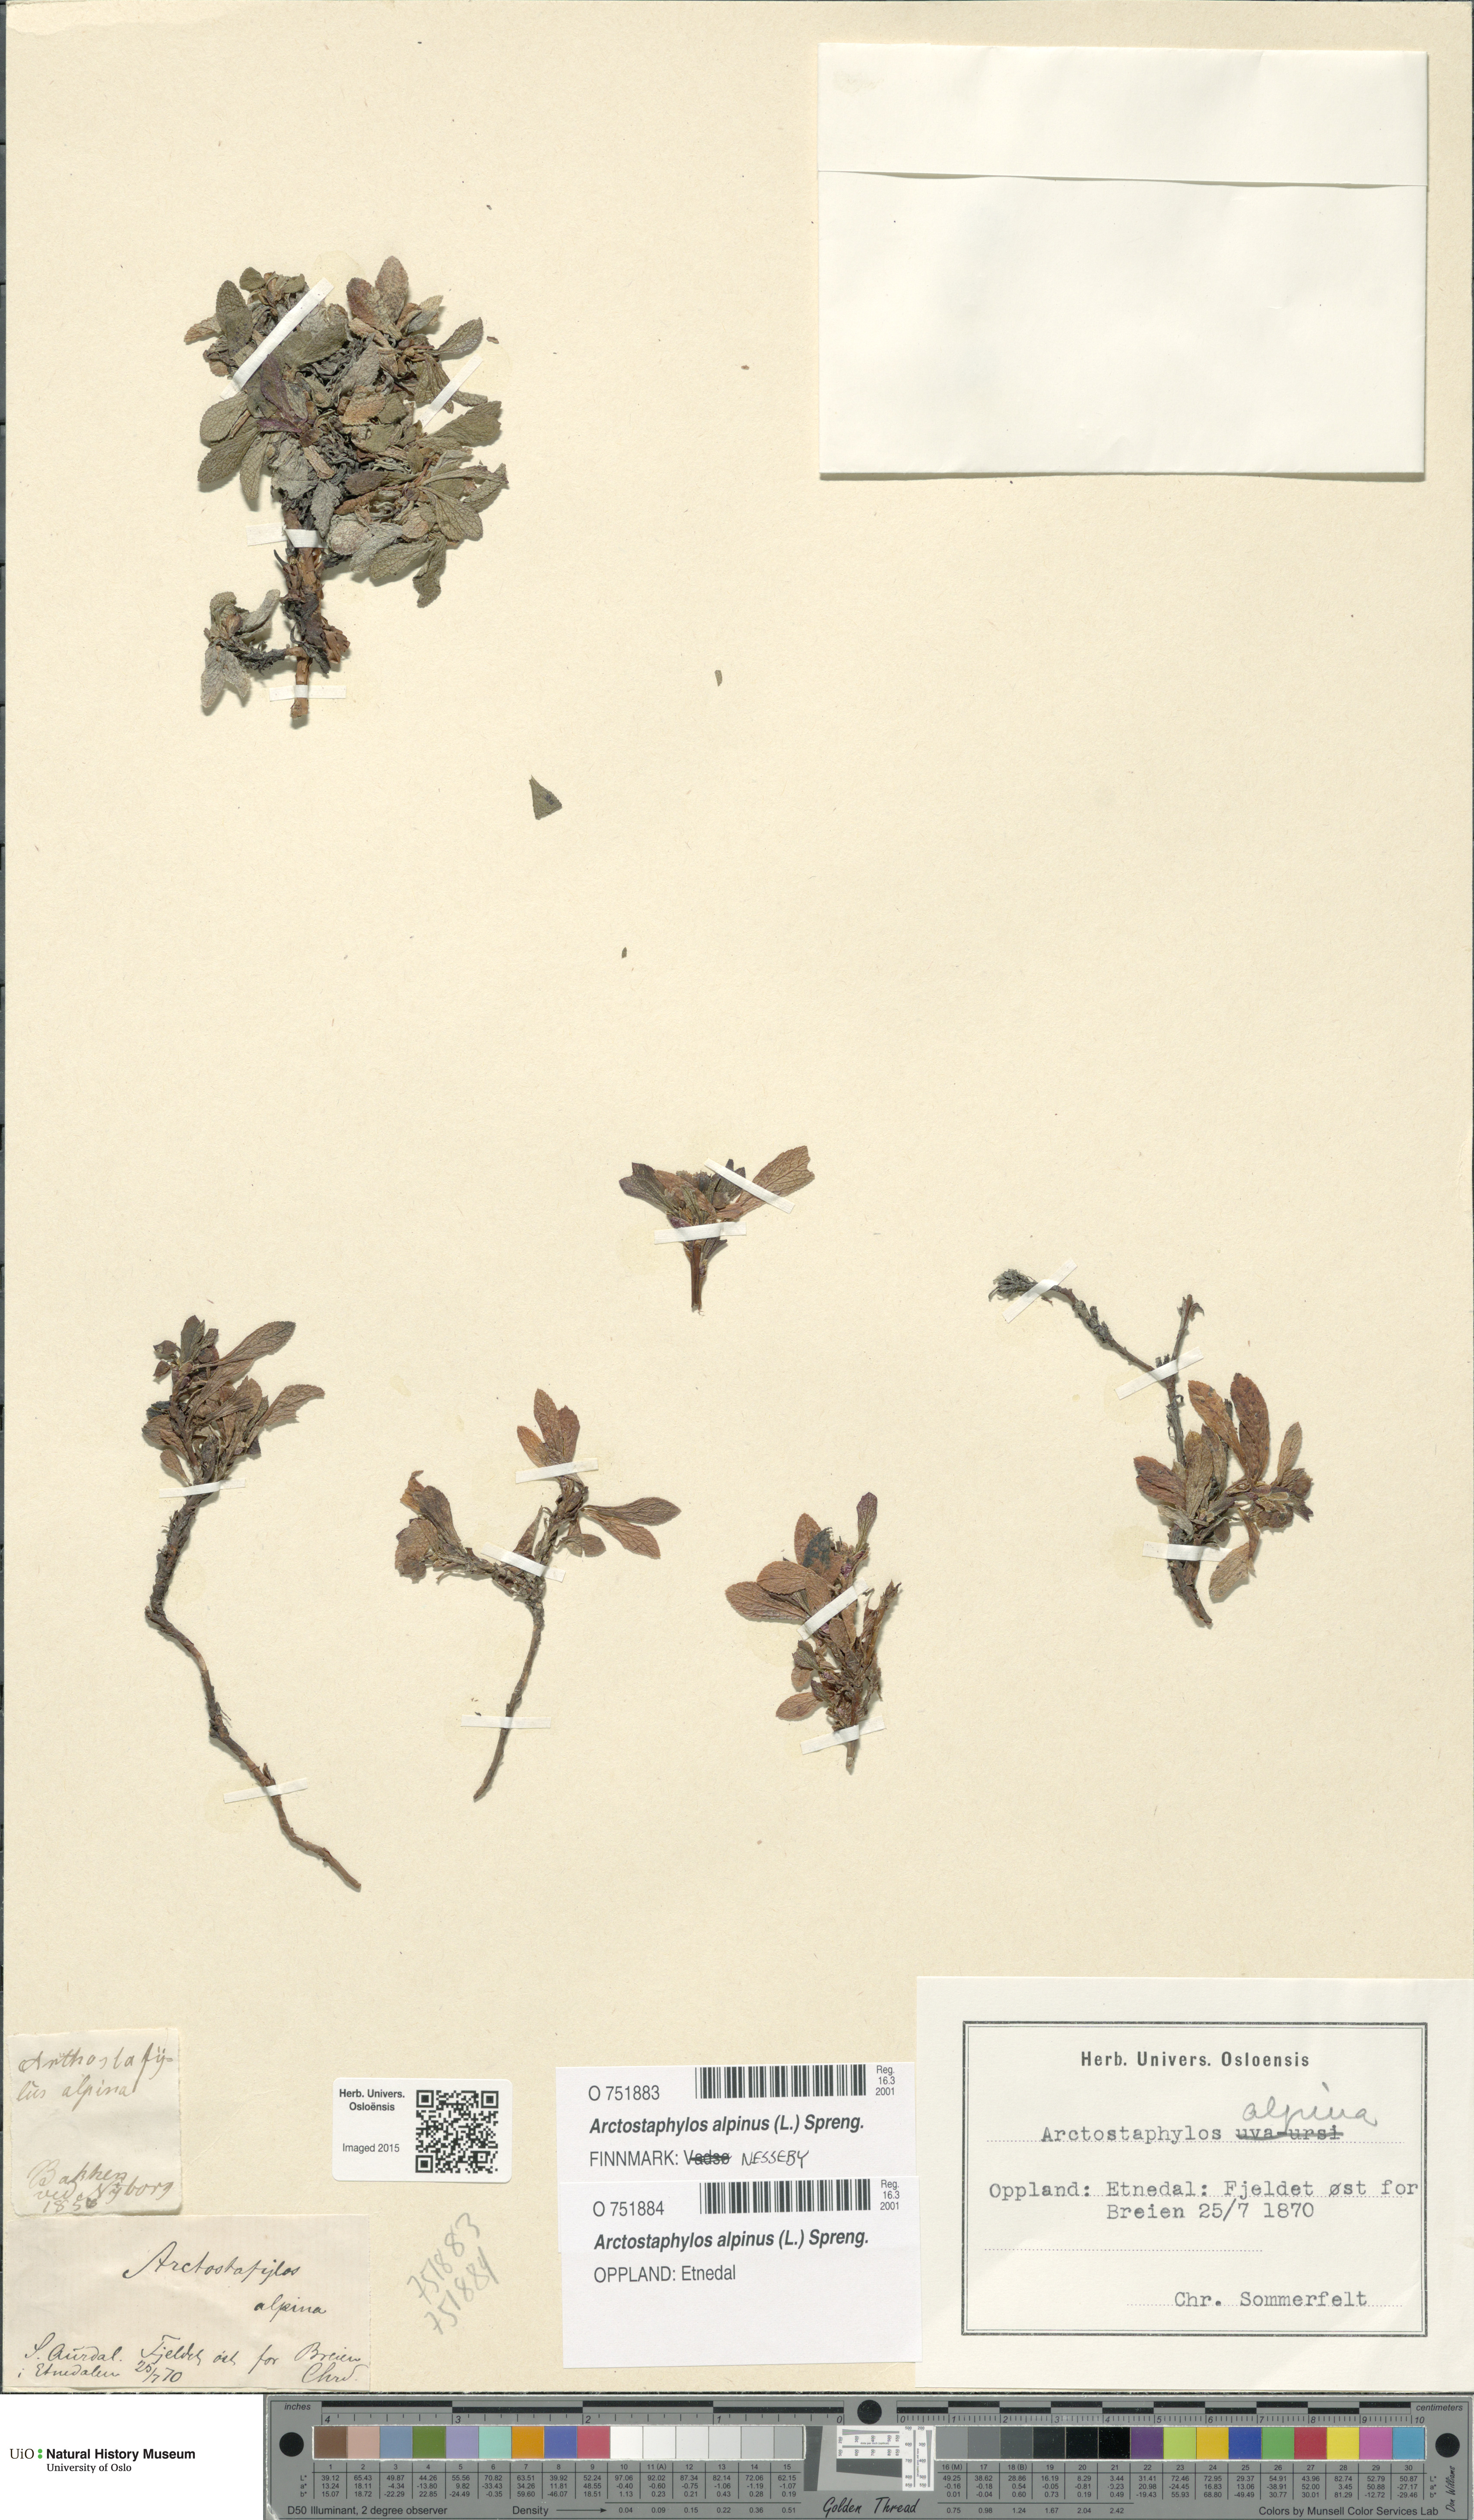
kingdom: Plantae
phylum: Tracheophyta
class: Magnoliopsida
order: Ericales
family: Ericaceae
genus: Arctostaphylos
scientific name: Arctostaphylos alpinus
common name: Alpine bearberry
